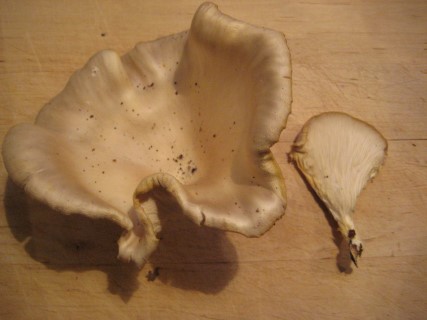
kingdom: Fungi
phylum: Basidiomycota
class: Agaricomycetes
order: Agaricales
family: Pleurotaceae
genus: Pleurotus
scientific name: Pleurotus pulmonarius
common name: sommer-østershat
